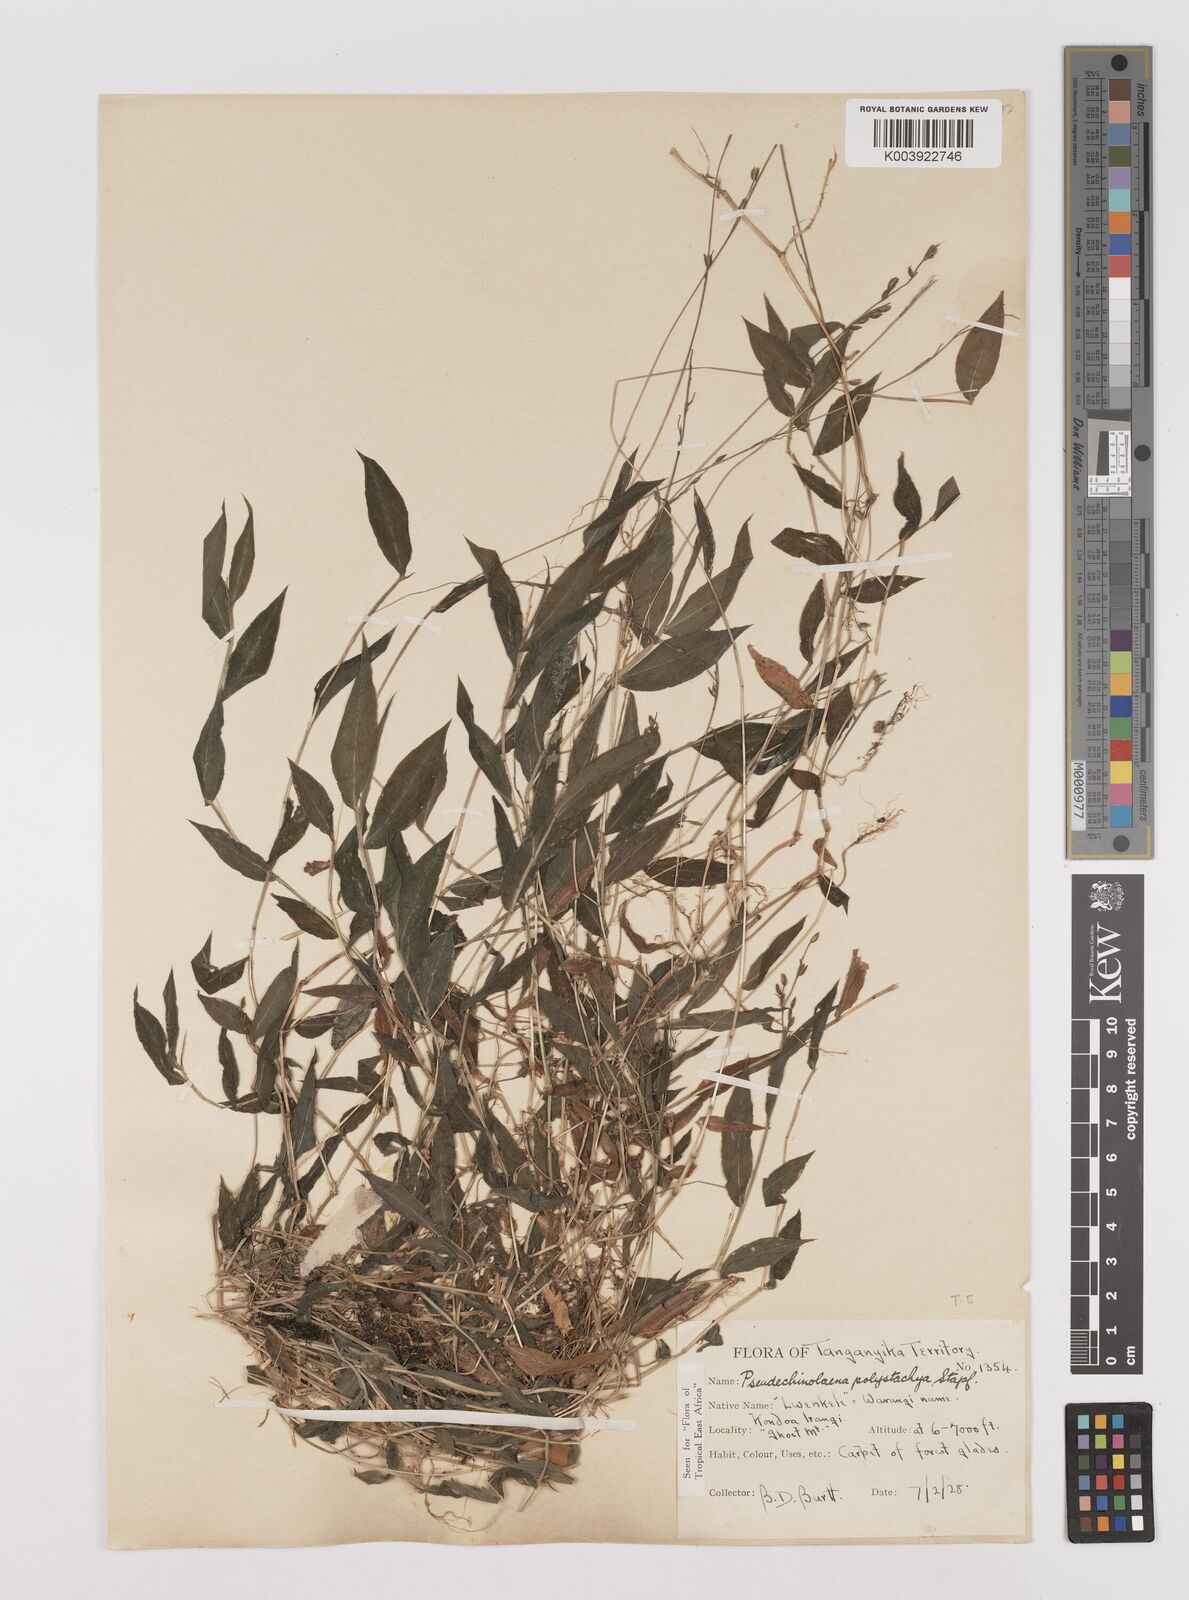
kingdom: Plantae
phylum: Tracheophyta
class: Liliopsida
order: Poales
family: Poaceae
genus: Pseudechinolaena
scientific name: Pseudechinolaena polystachya
